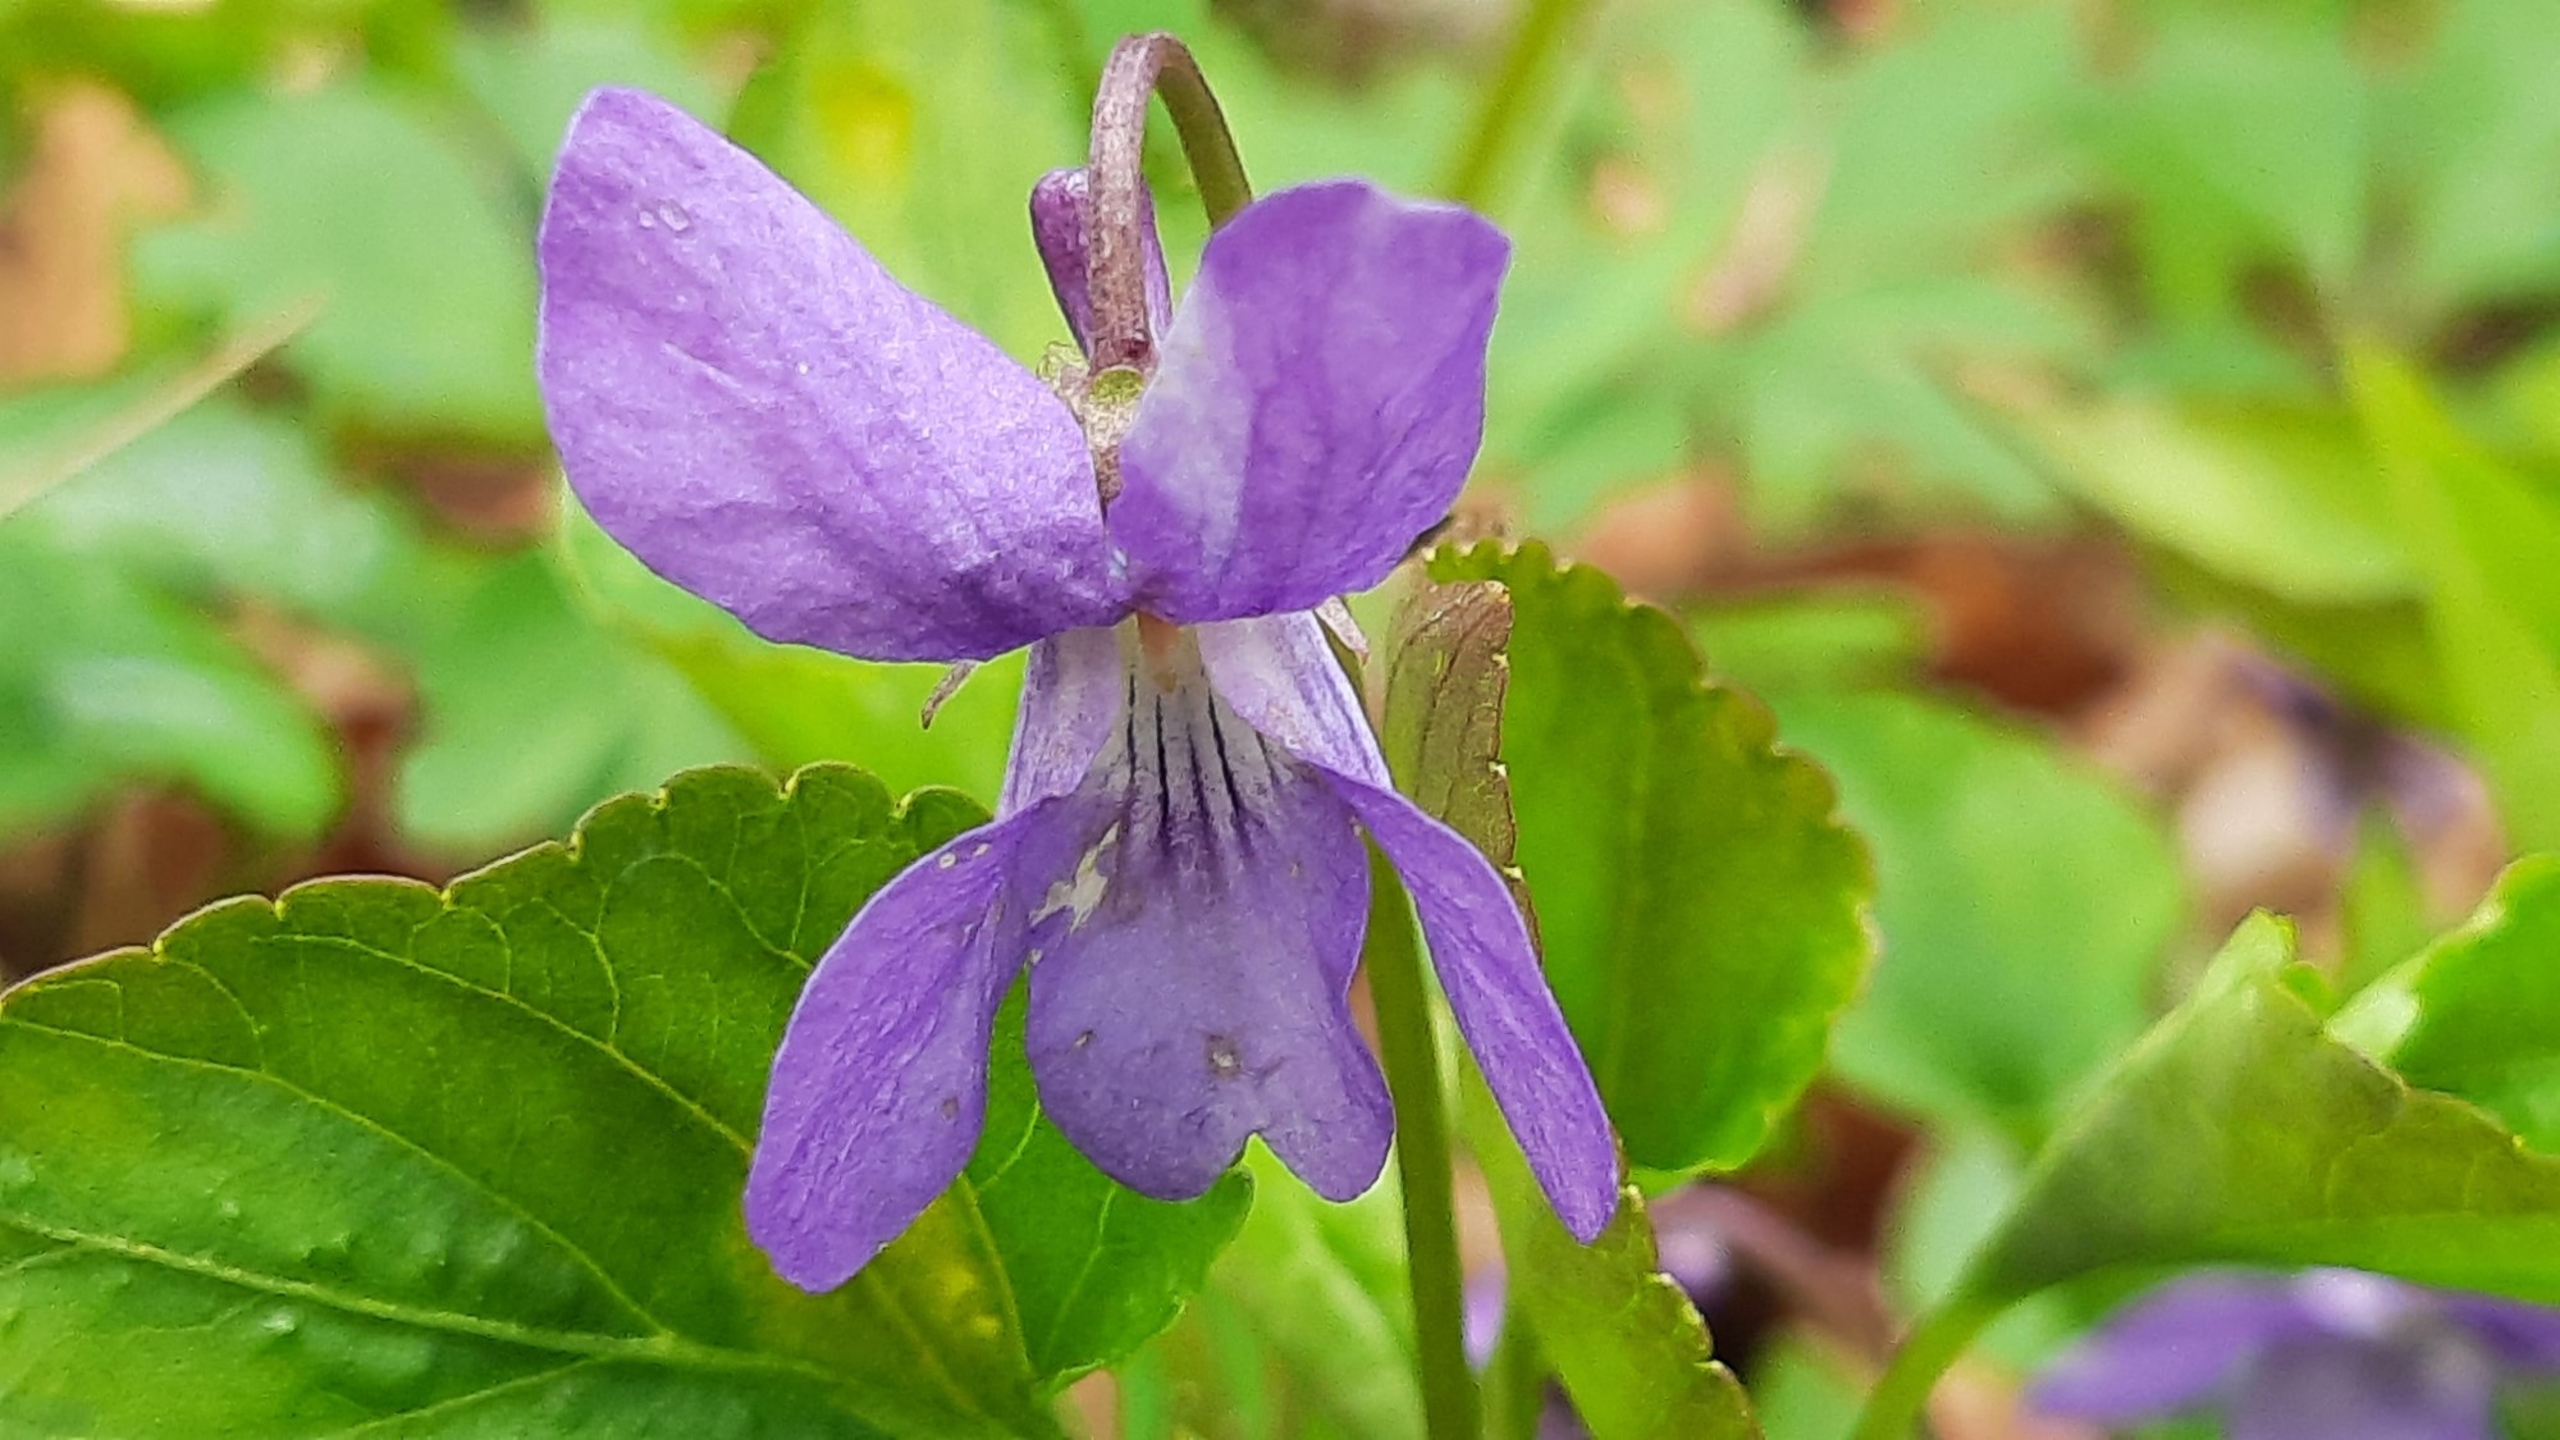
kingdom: Plantae
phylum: Tracheophyta
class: Magnoliopsida
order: Malpighiales
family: Violaceae
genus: Viola
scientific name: Viola reichenbachiana
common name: Skov-viol
